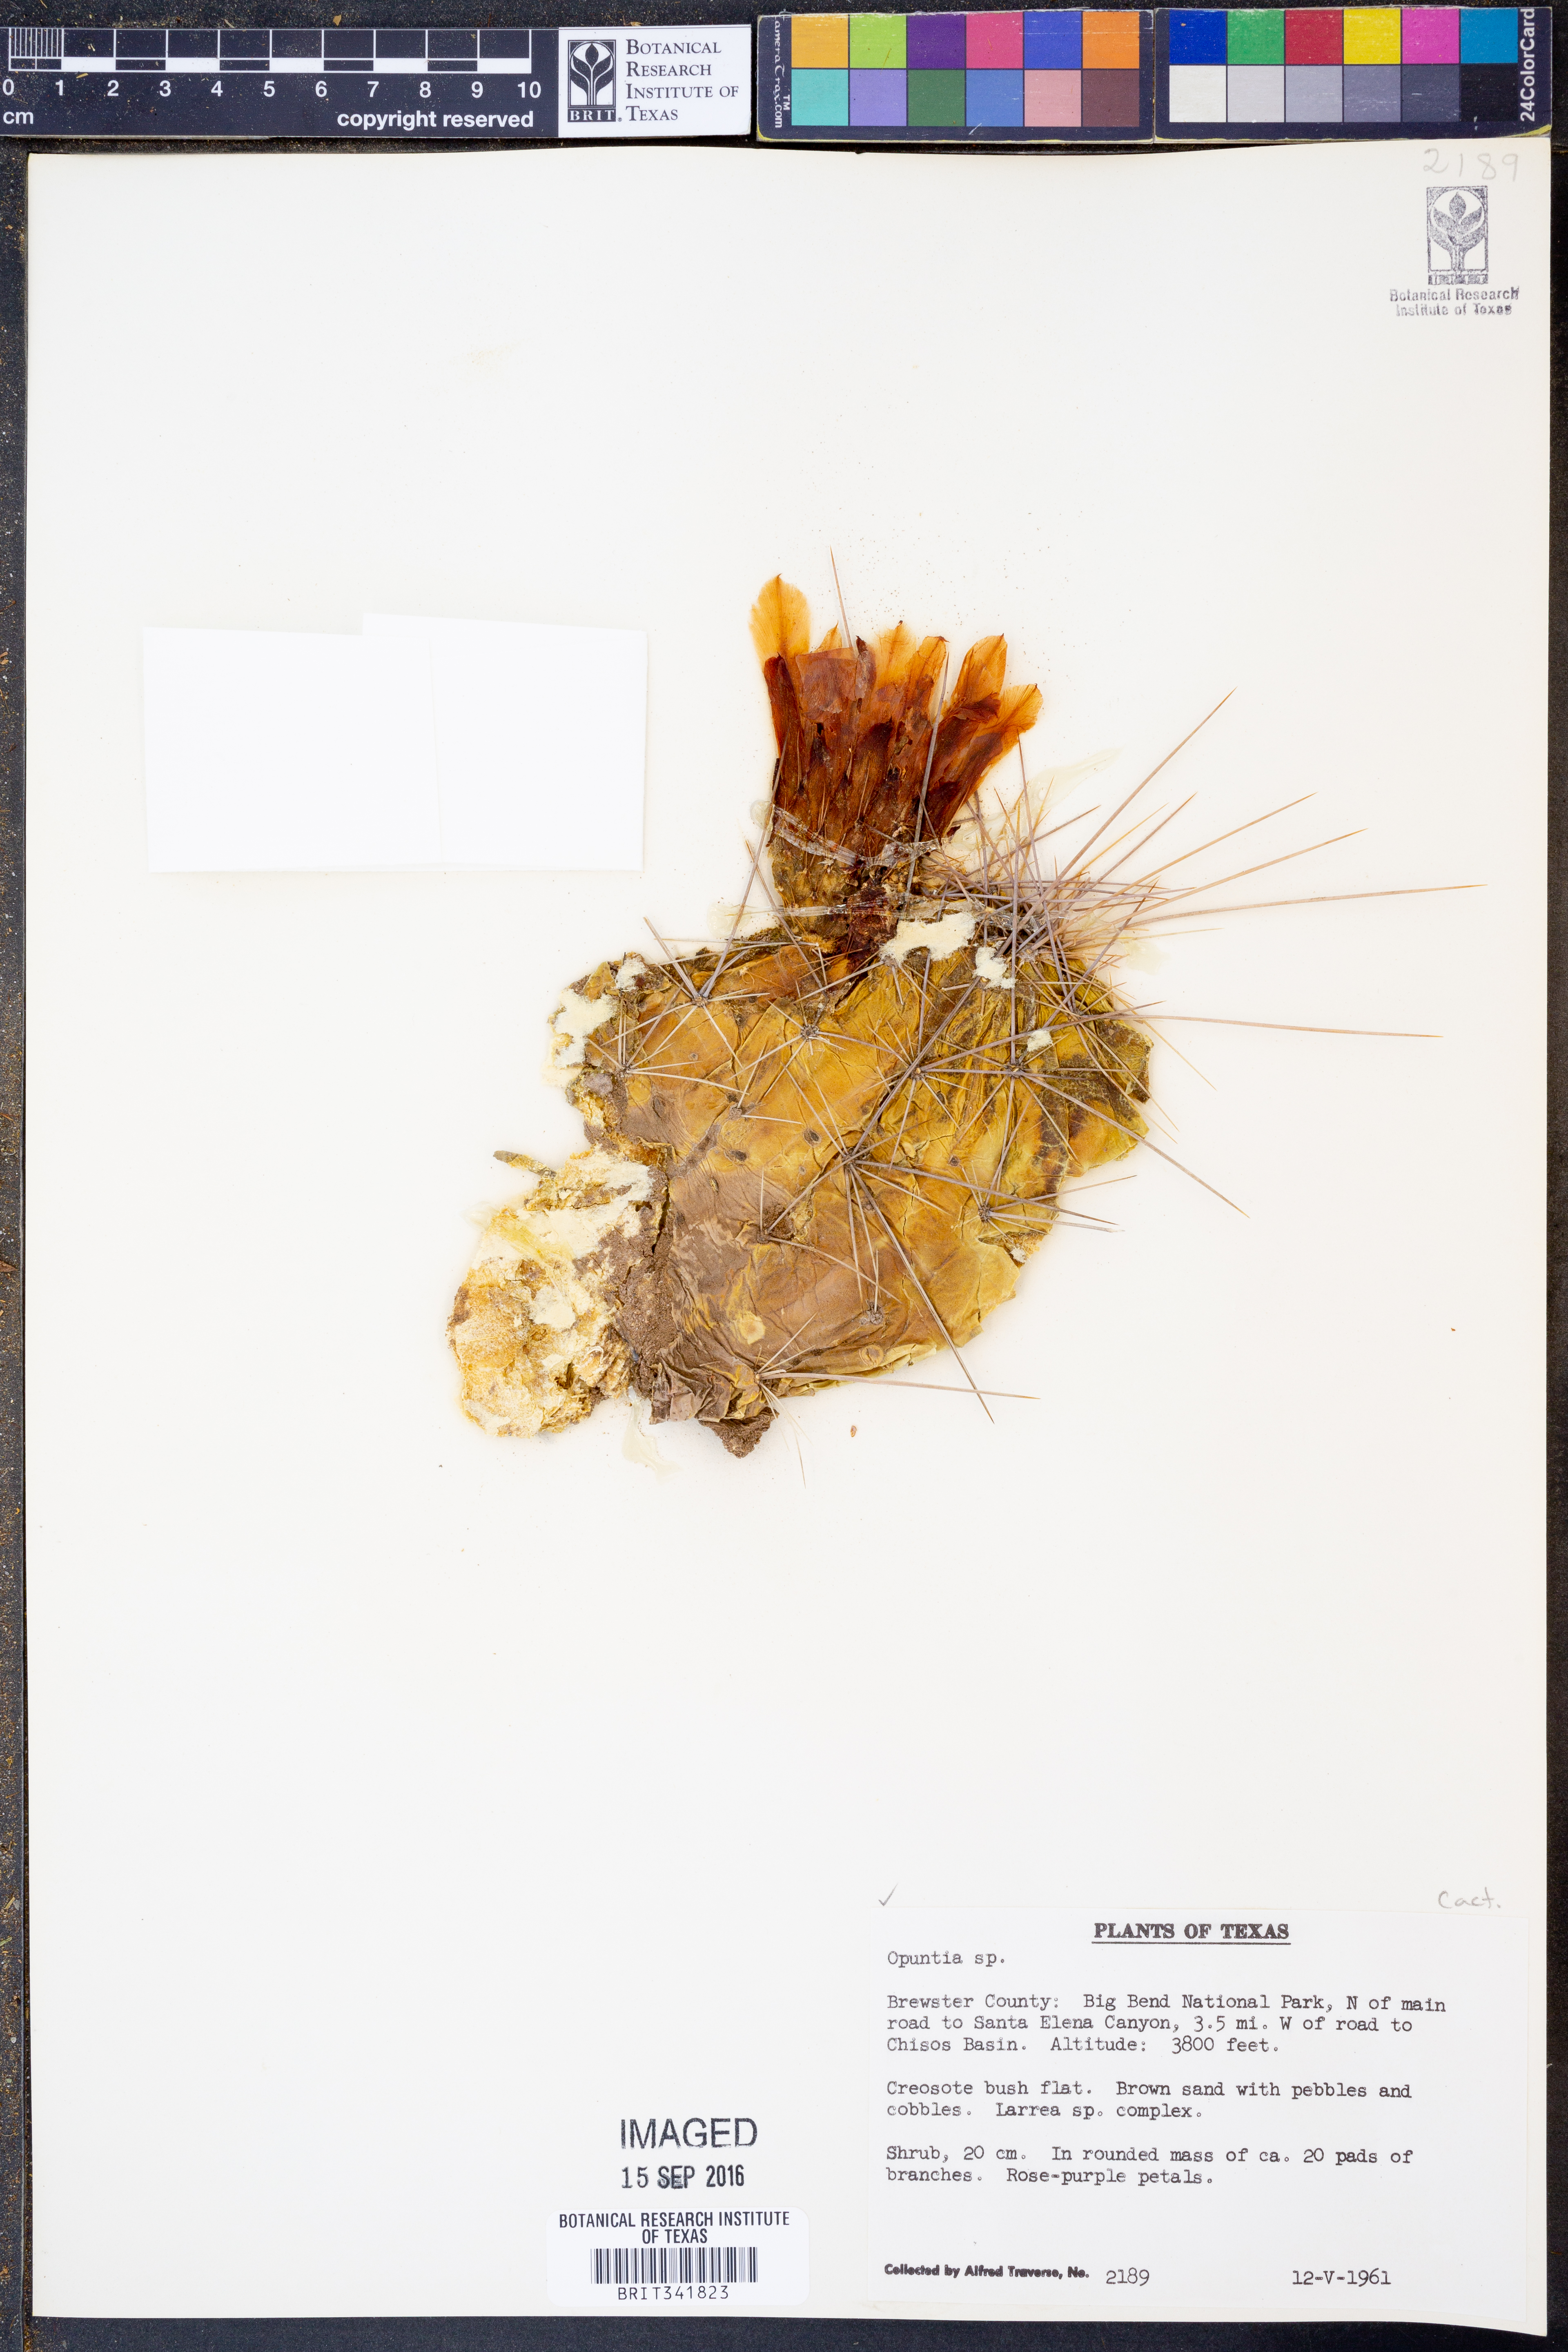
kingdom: Plantae
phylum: Tracheophyta
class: Magnoliopsida
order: Caryophyllales
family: Cactaceae
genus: Opuntia
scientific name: Opuntia
